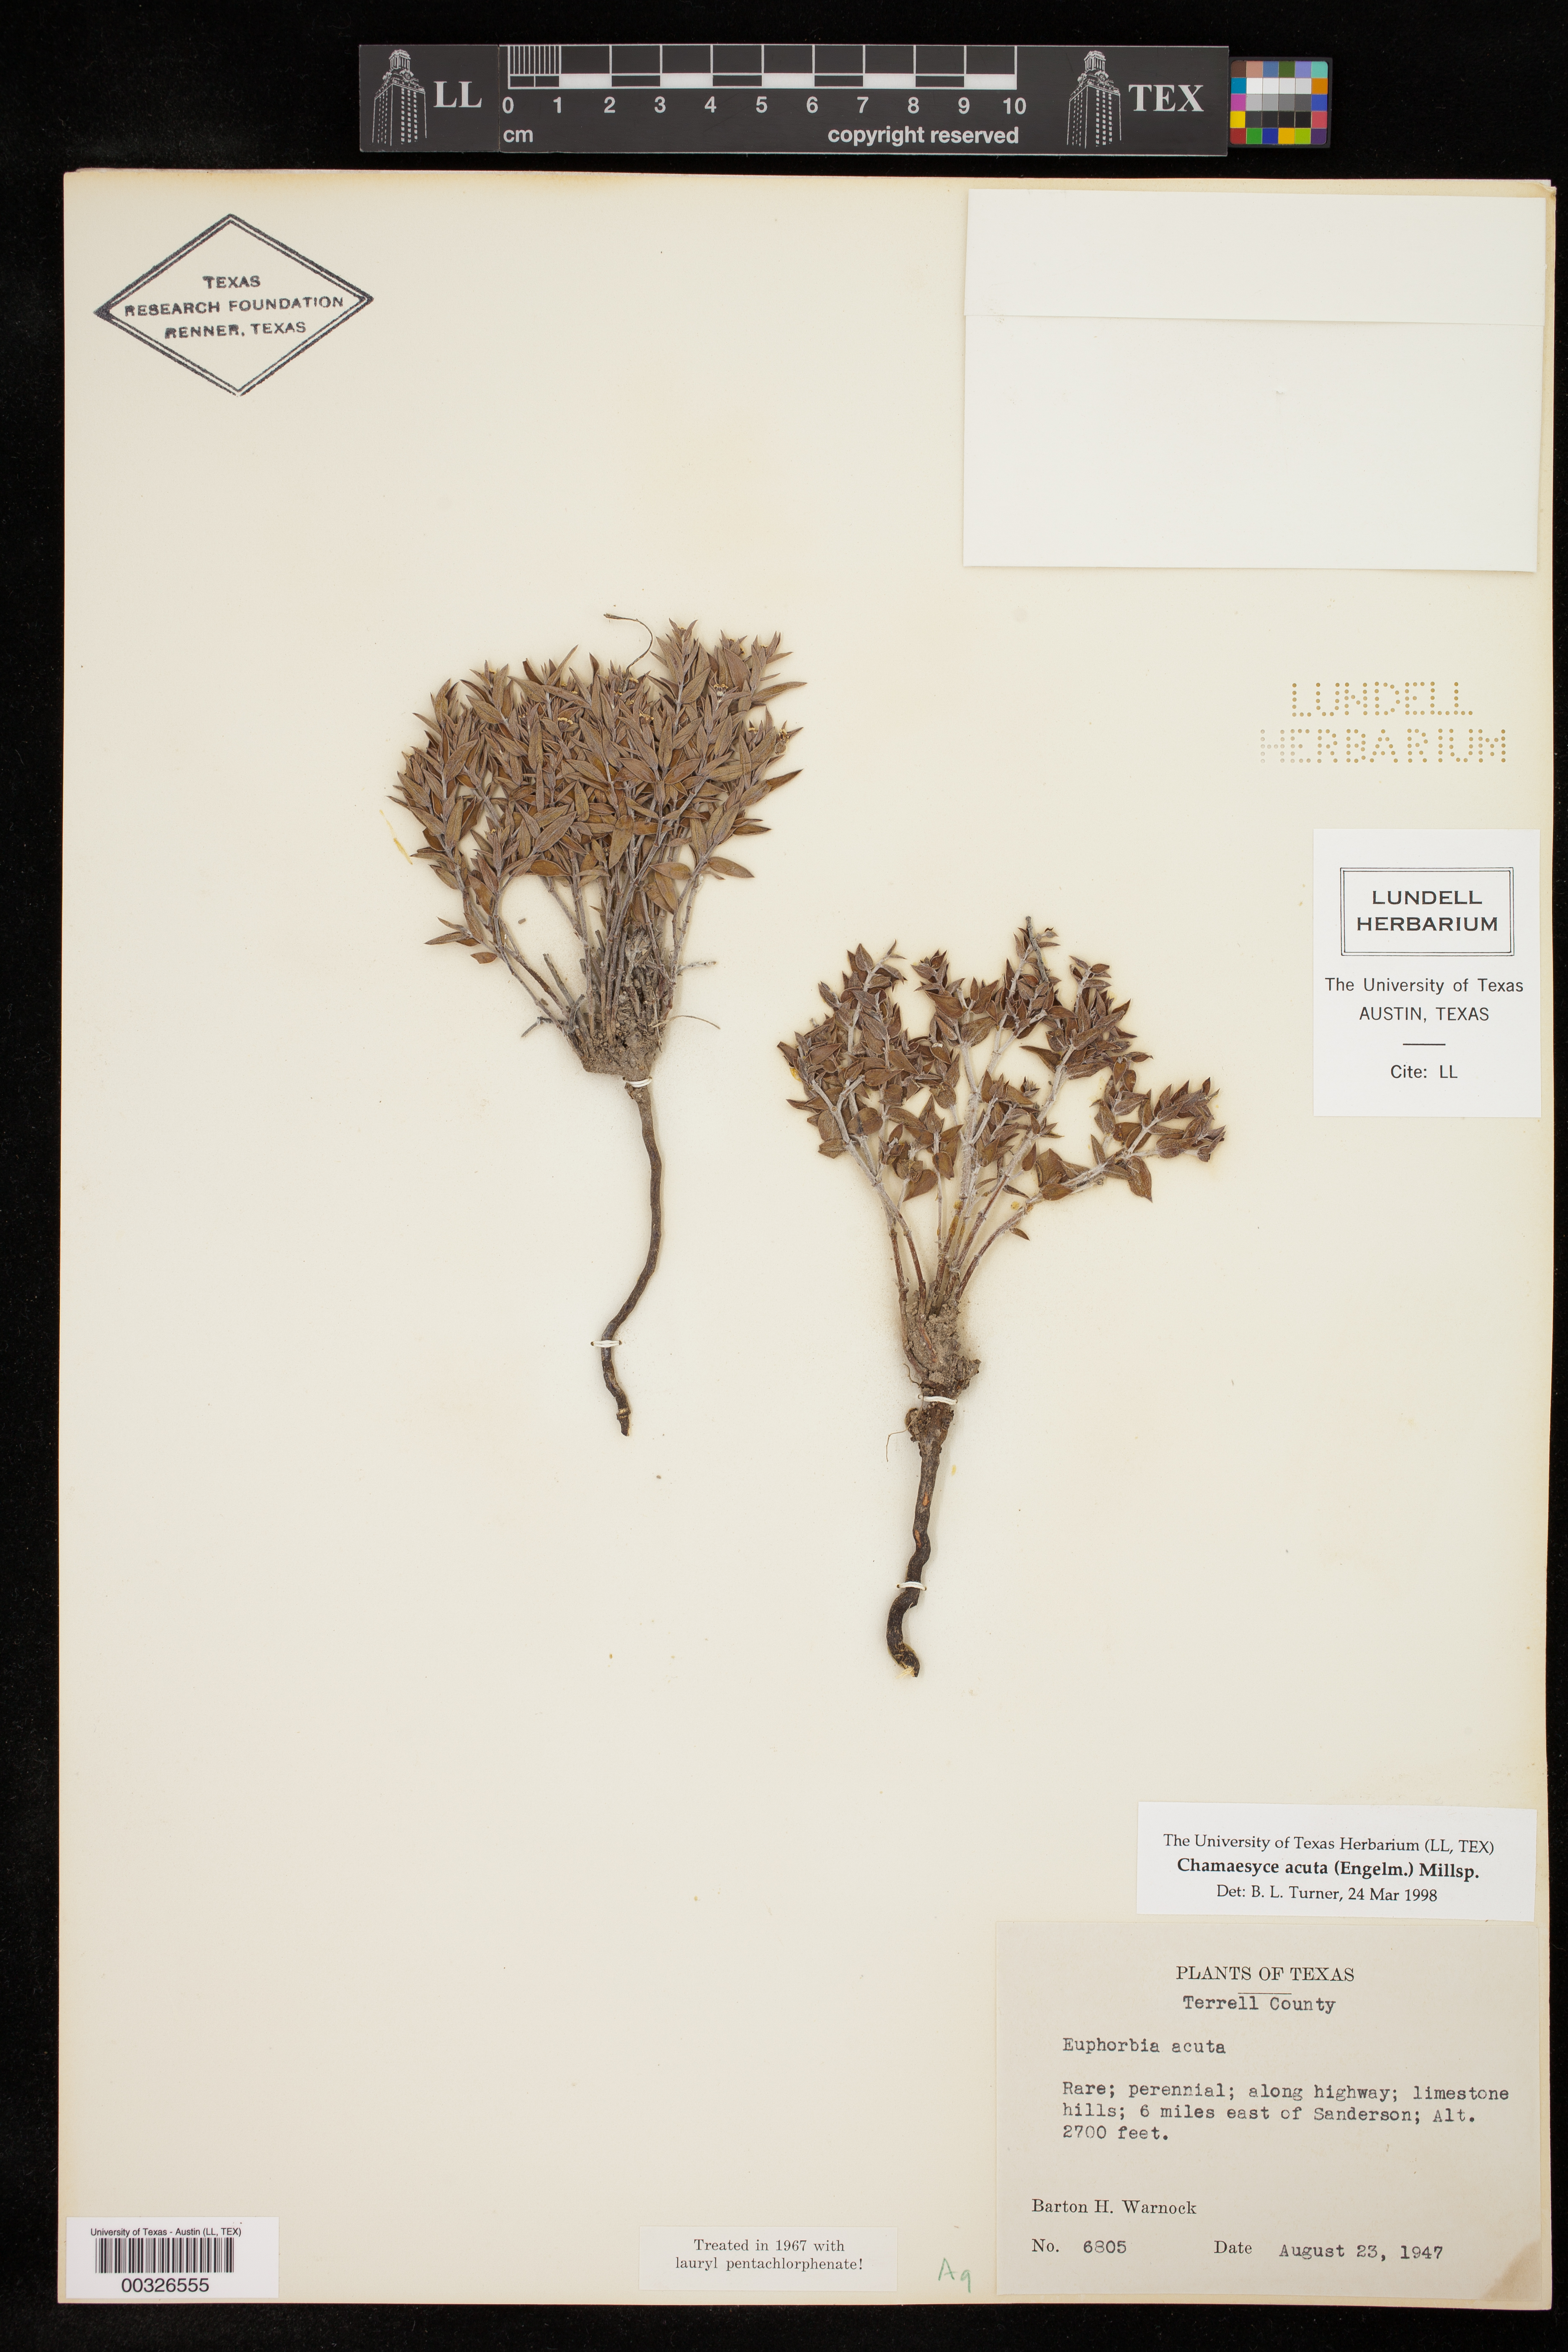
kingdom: Plantae
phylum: Tracheophyta
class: Magnoliopsida
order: Malpighiales
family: Euphorbiaceae
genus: Euphorbia
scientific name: Euphorbia acuta
